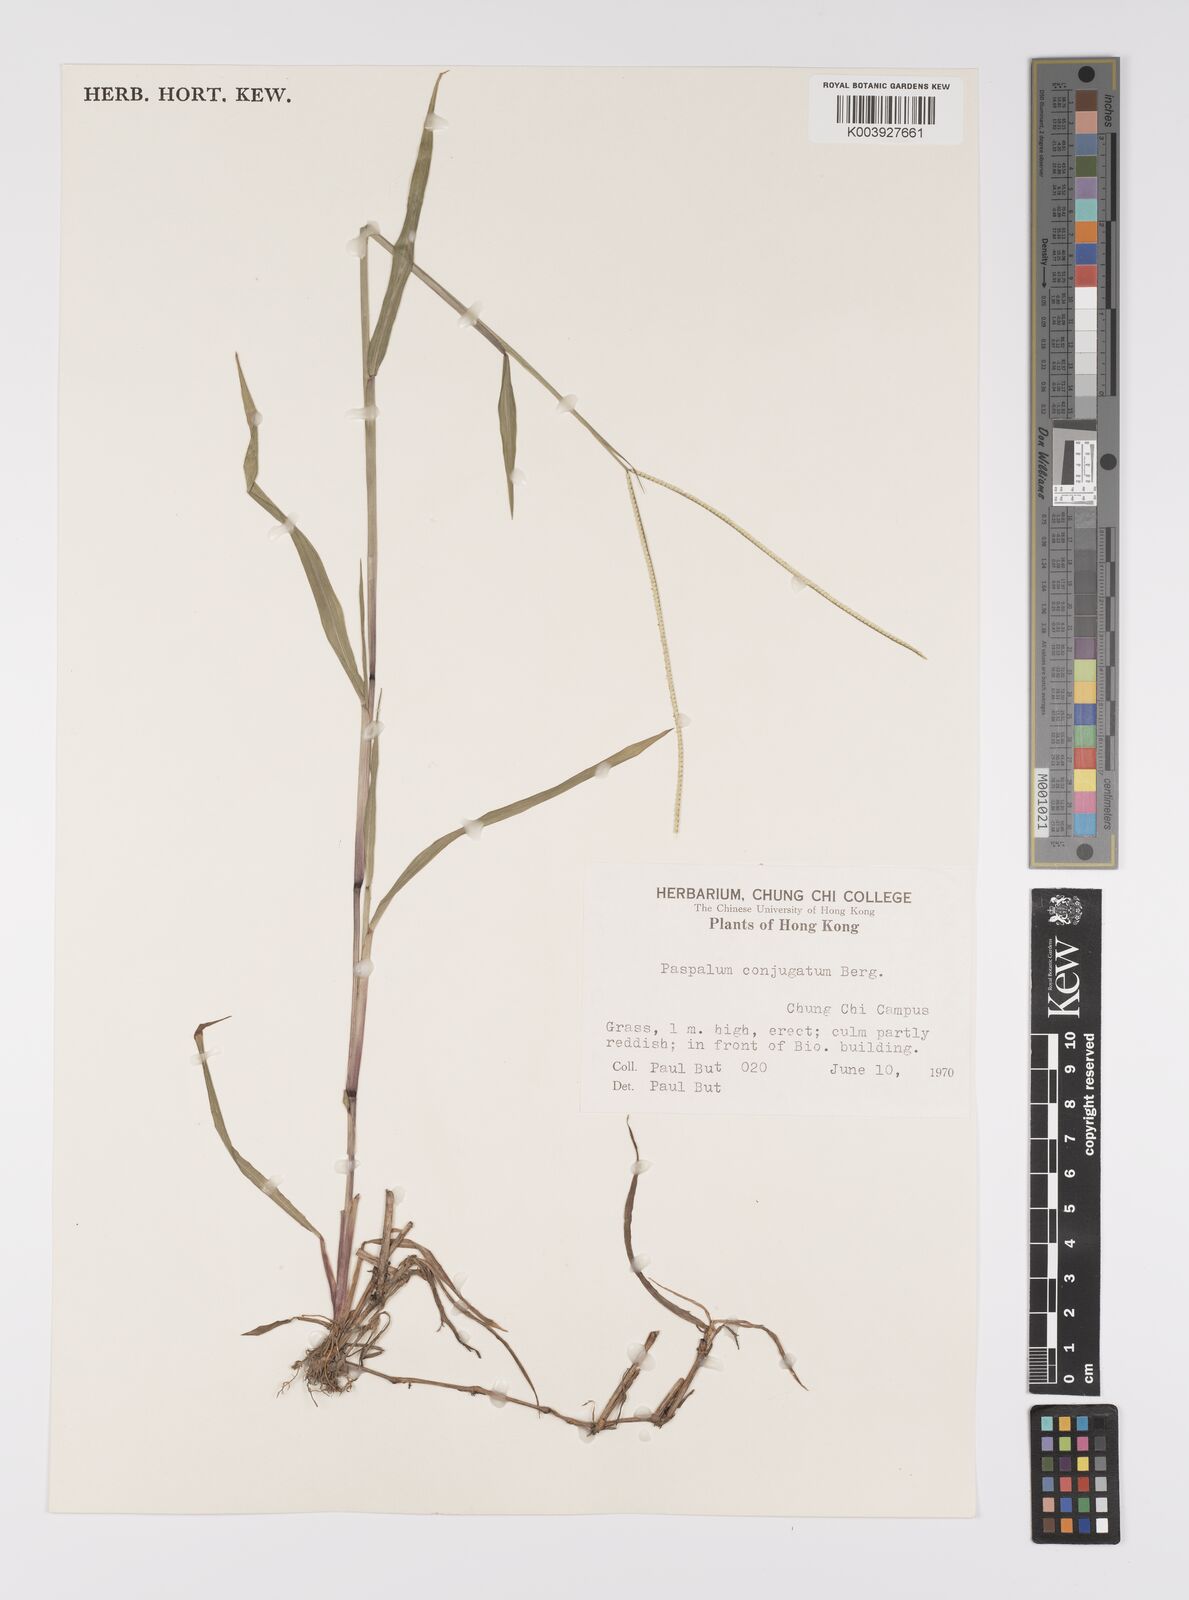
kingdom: Plantae
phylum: Tracheophyta
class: Liliopsida
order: Poales
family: Poaceae
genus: Paspalum
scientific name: Paspalum conjugatum
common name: Hilograss
